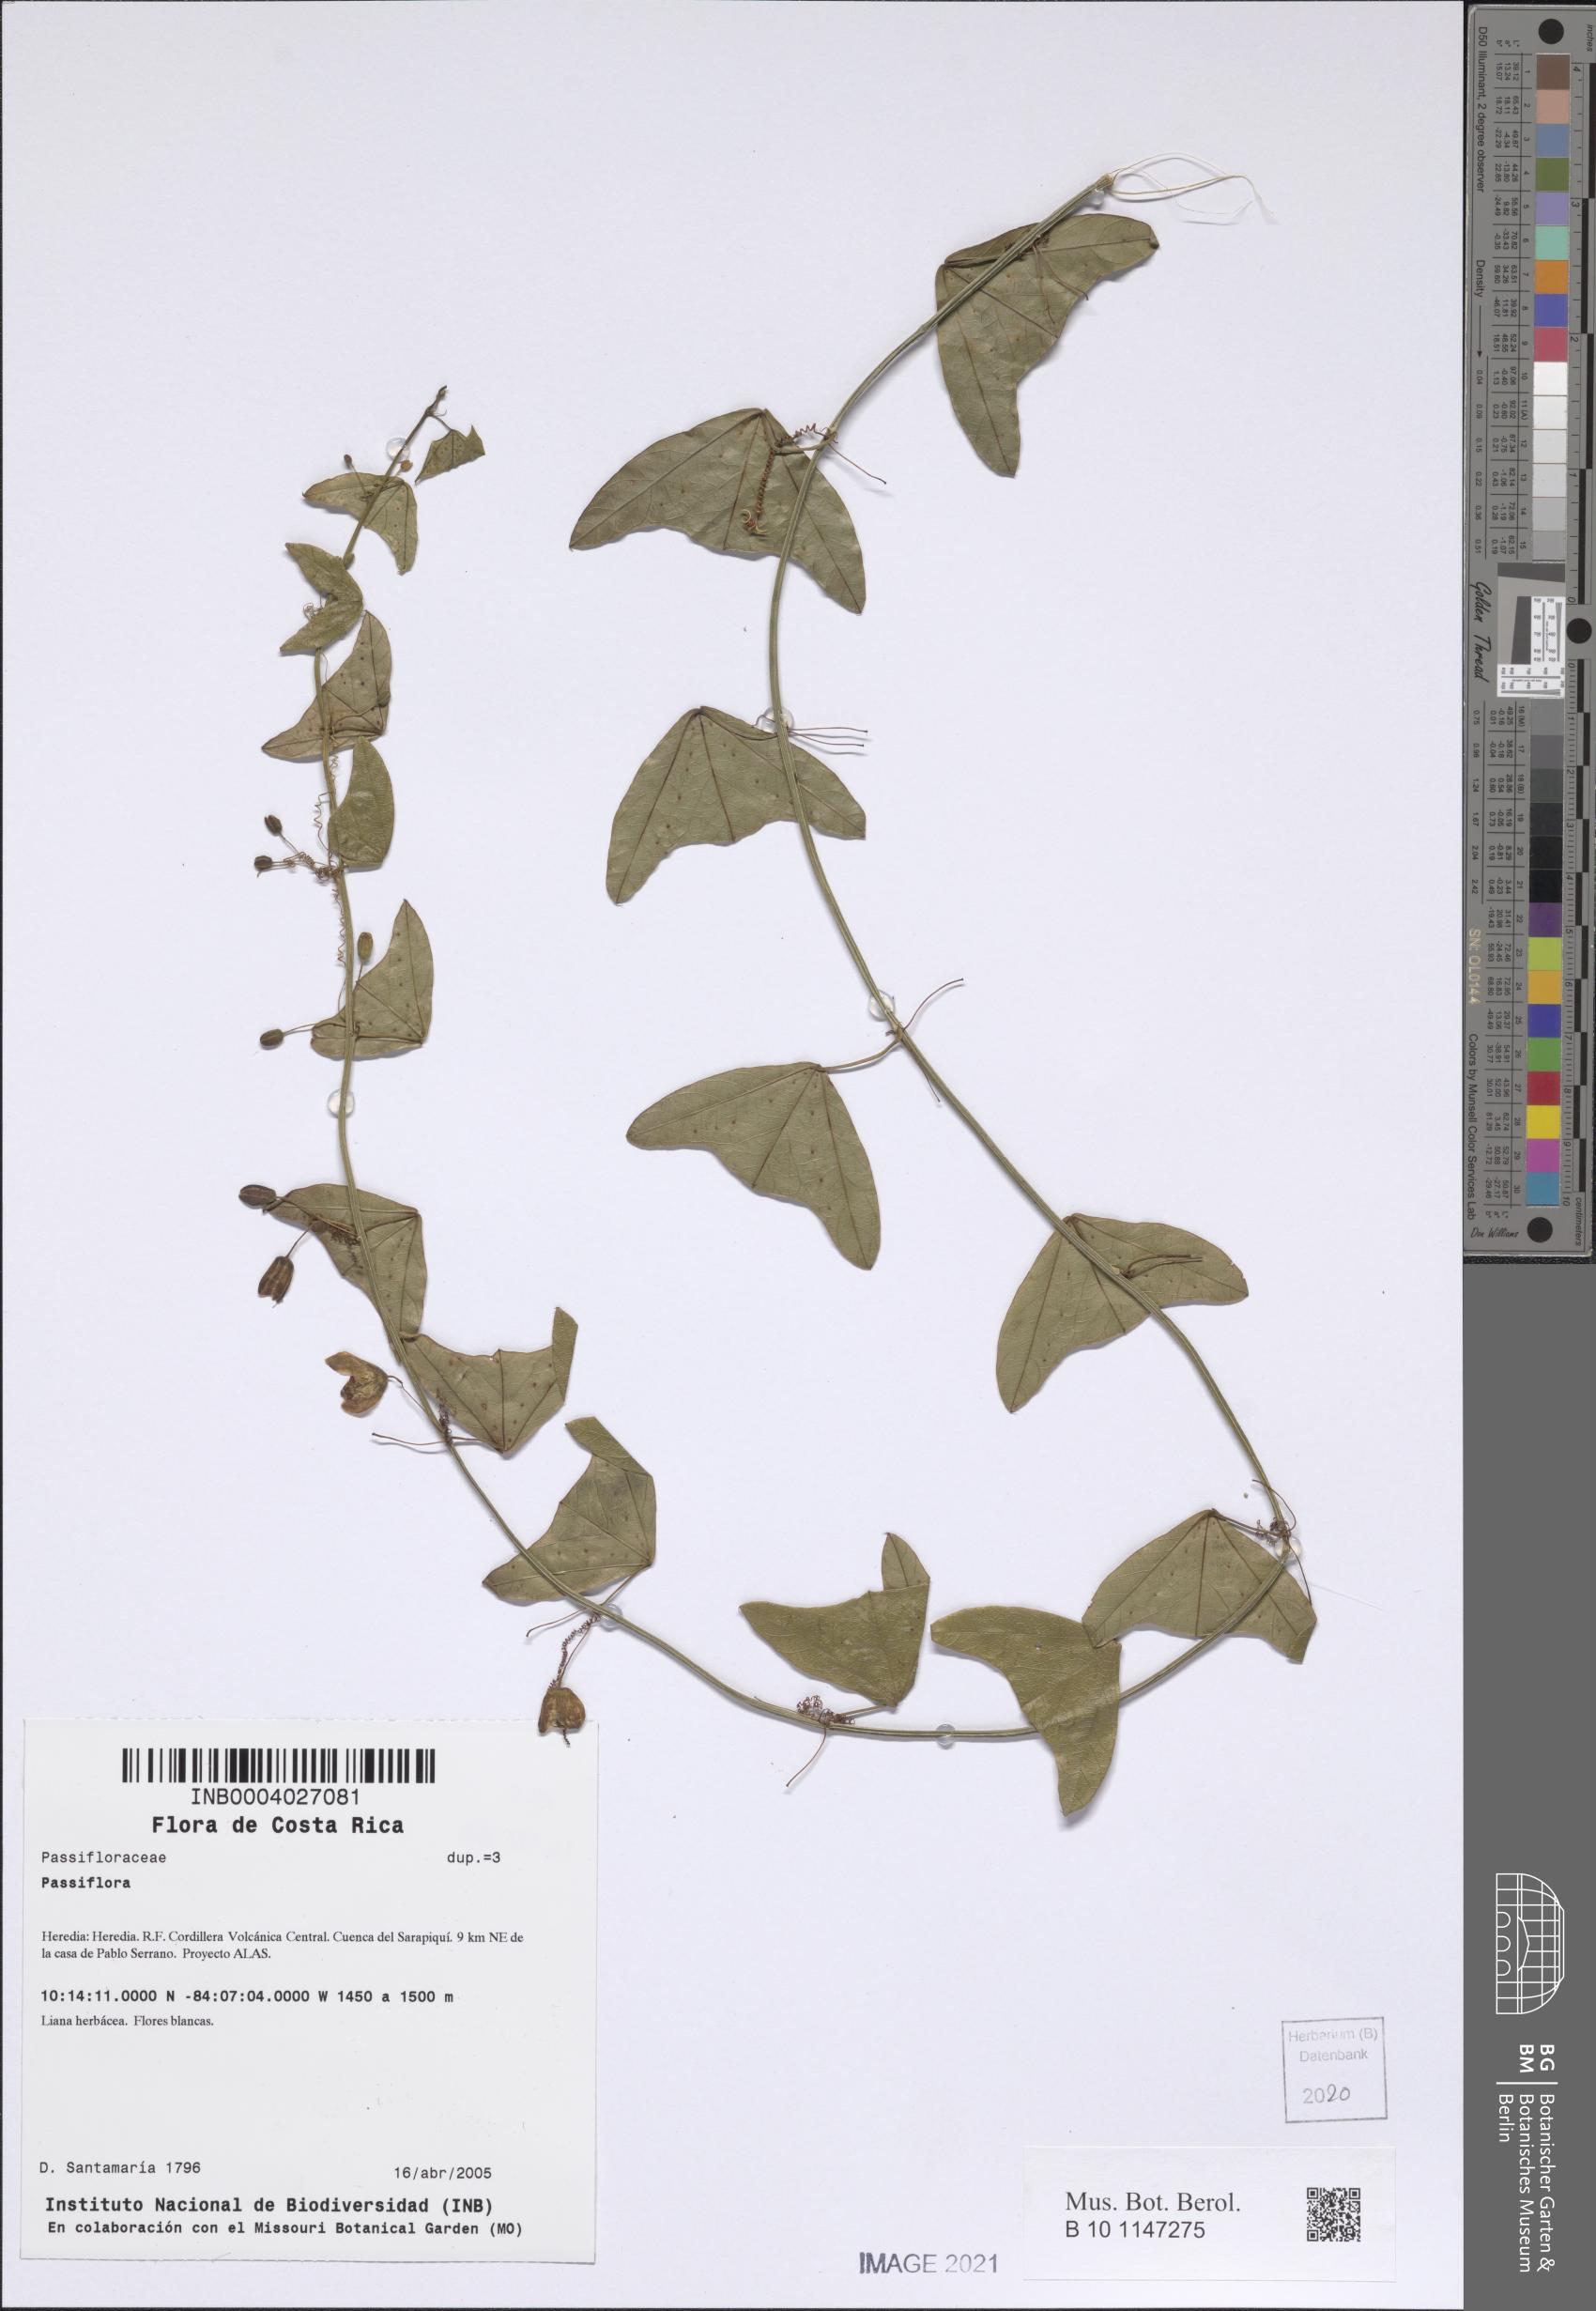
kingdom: Plantae
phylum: Tracheophyta
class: Magnoliopsida
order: Malpighiales
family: Passifloraceae
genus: Passiflora
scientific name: Passiflora
